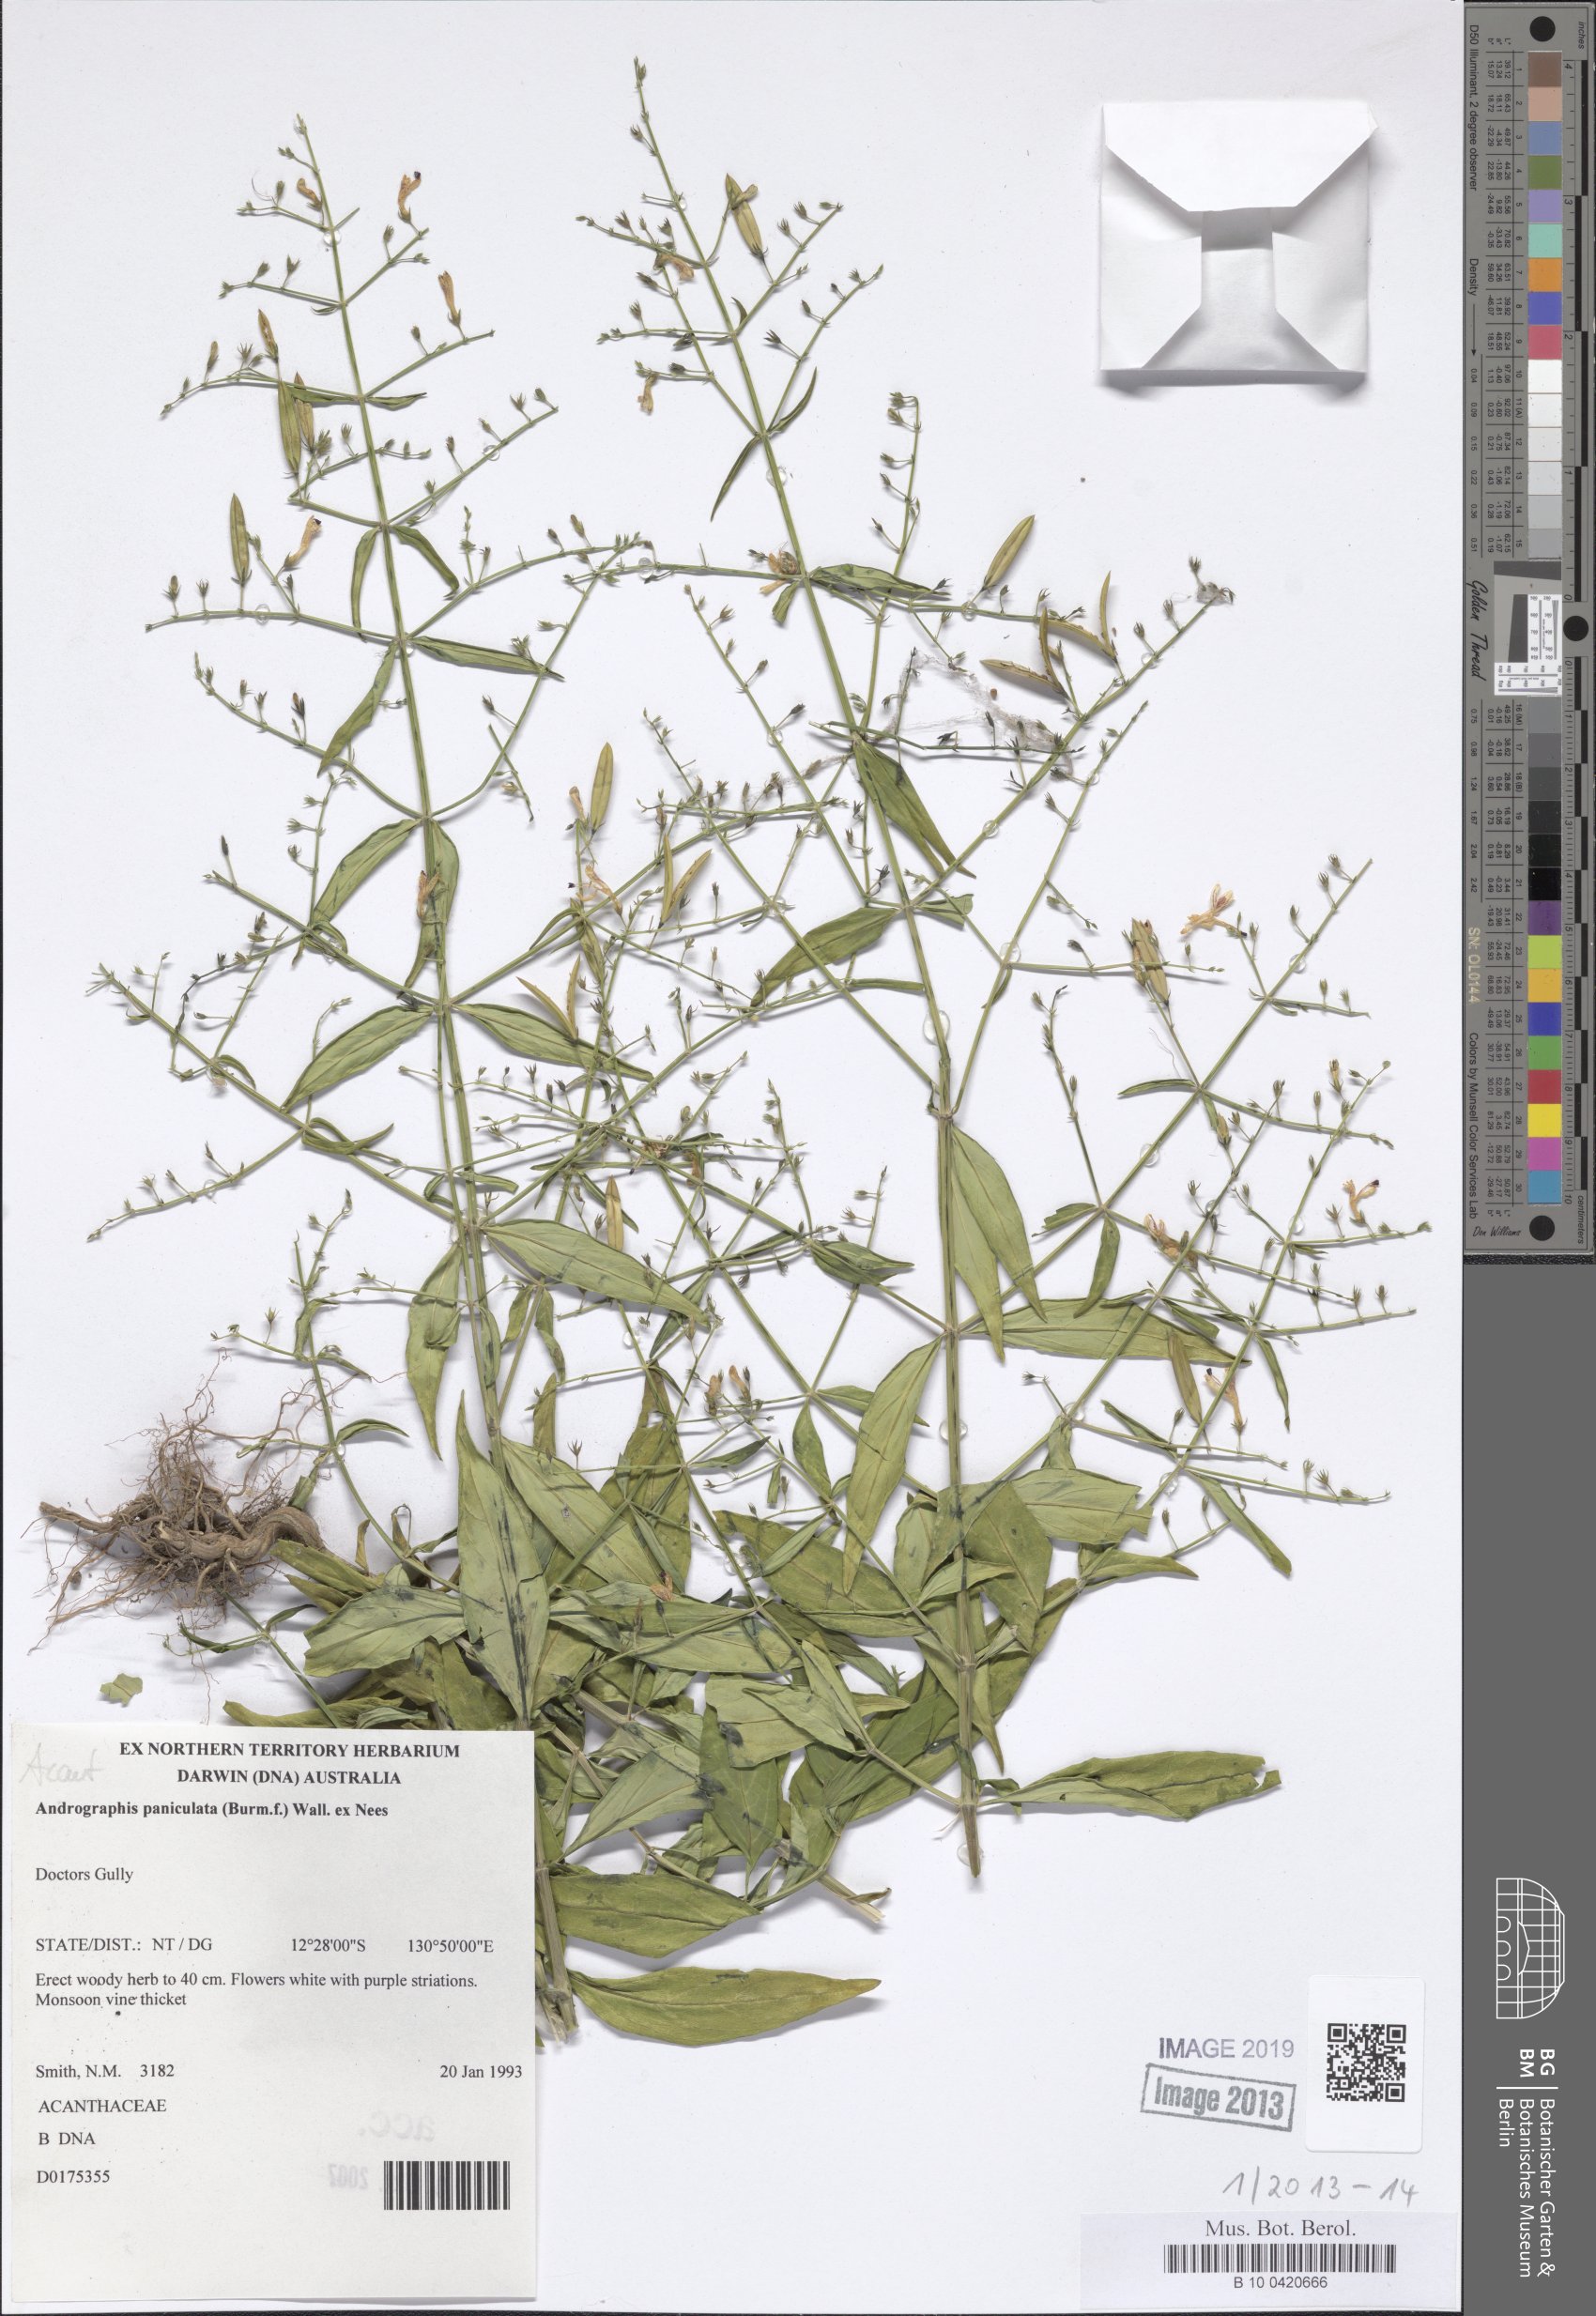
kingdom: Plantae
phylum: Tracheophyta
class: Magnoliopsida
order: Lamiales
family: Acanthaceae
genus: Andrographis
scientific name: Andrographis paniculata
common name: Green chireta
